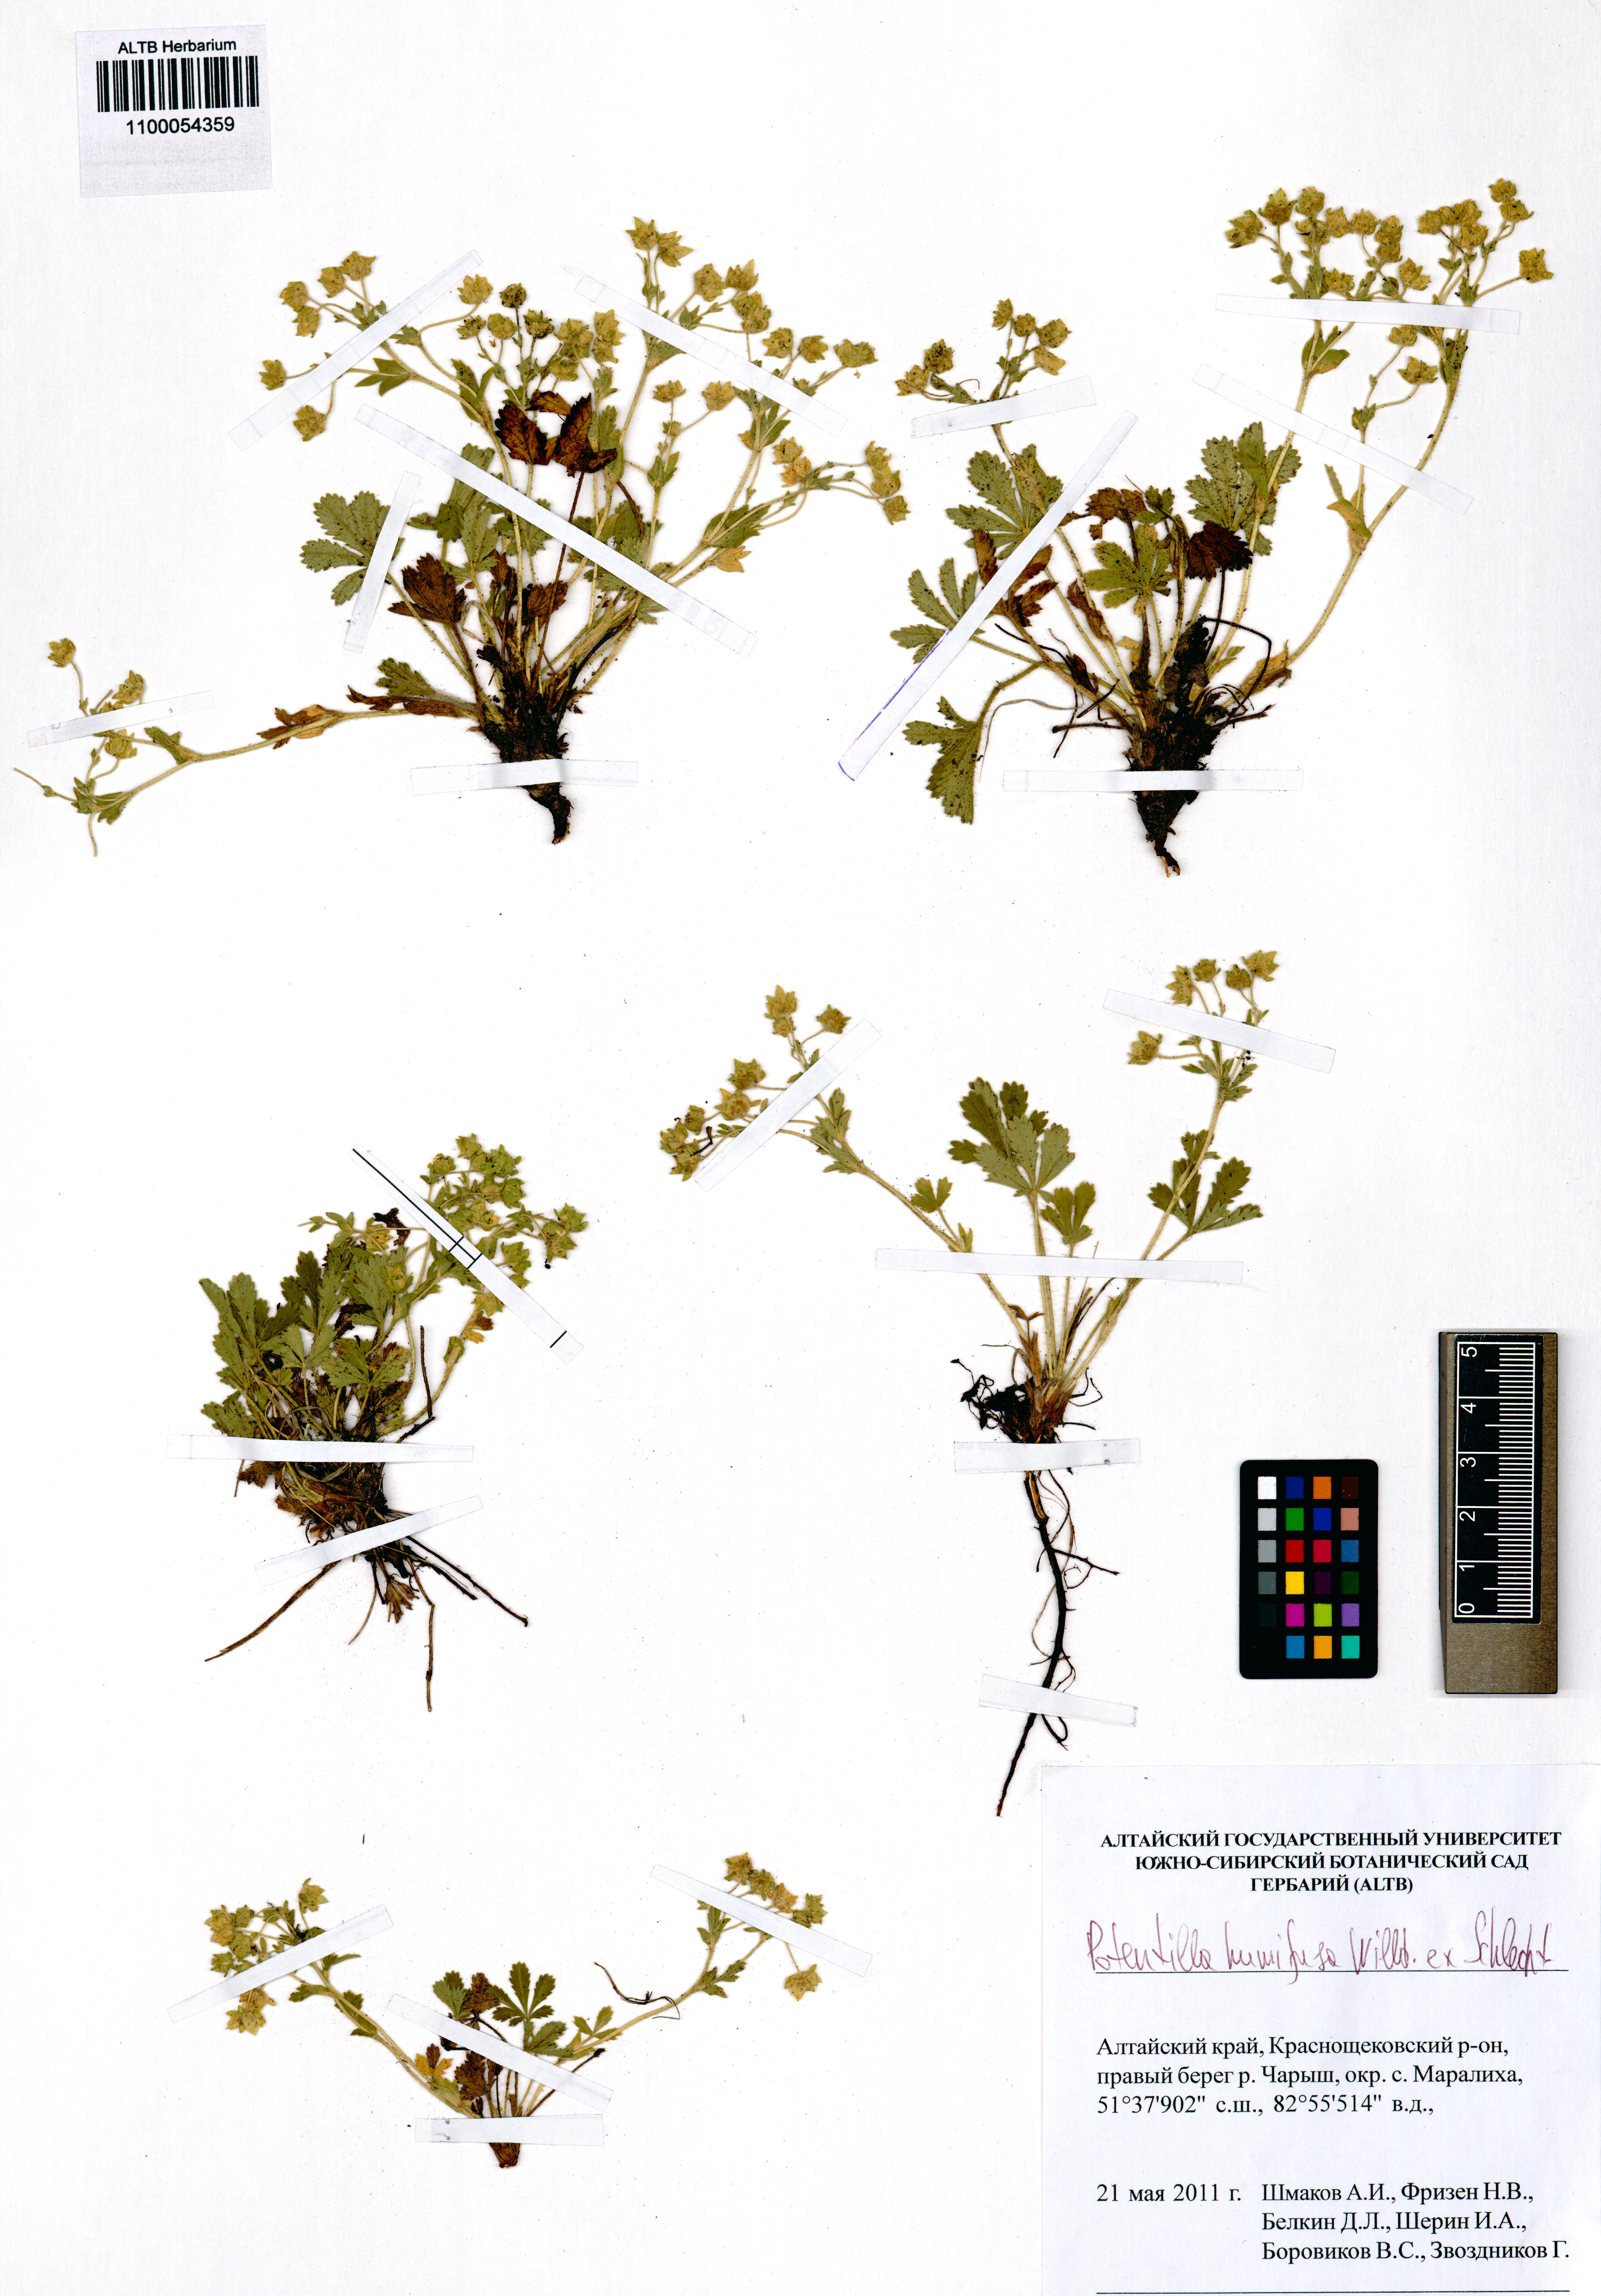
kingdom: Plantae
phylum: Tracheophyta
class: Magnoliopsida
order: Rosales
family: Rosaceae
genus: Potentilla
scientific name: Potentilla humifusa
